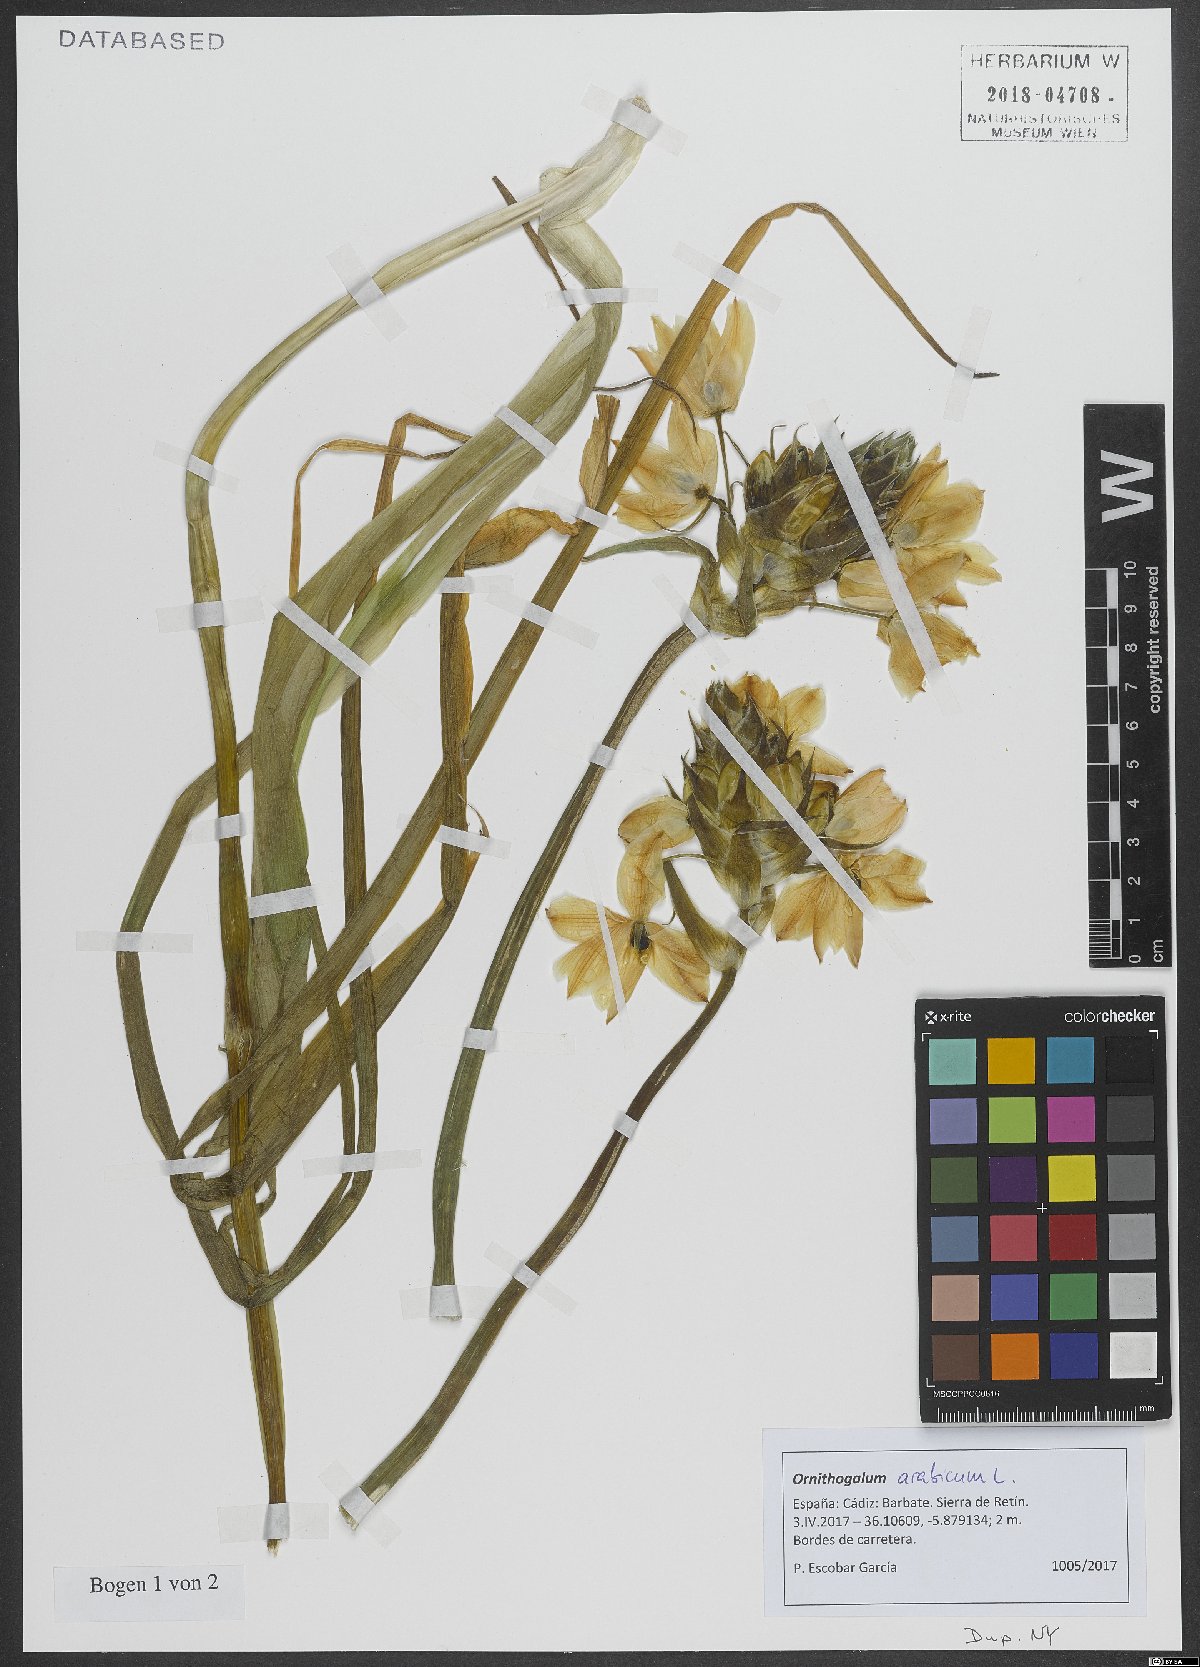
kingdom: Plantae
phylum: Tracheophyta
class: Liliopsida
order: Asparagales
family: Asparagaceae
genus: Ornithogalum
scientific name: Ornithogalum arabicum
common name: Arabian starflower
